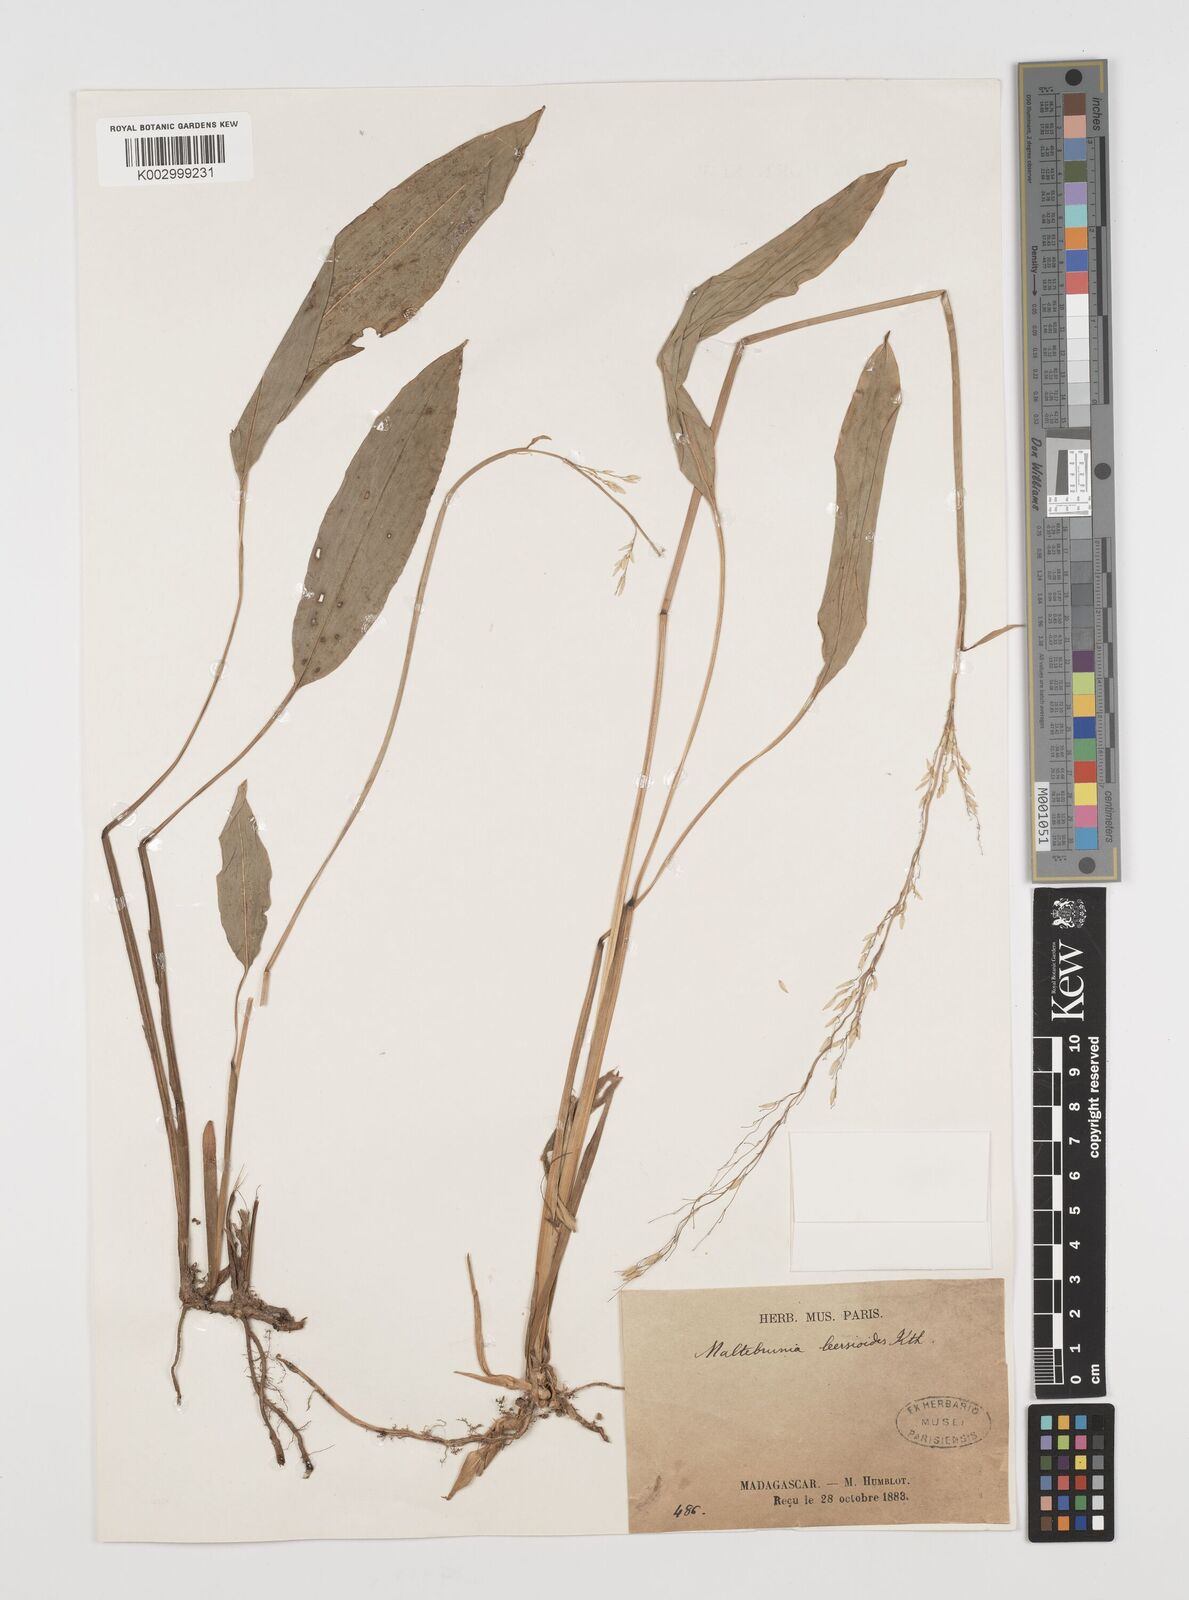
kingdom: Plantae
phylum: Tracheophyta
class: Liliopsida
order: Poales
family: Poaceae
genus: Maltebrunia
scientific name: Maltebrunia leersioides
